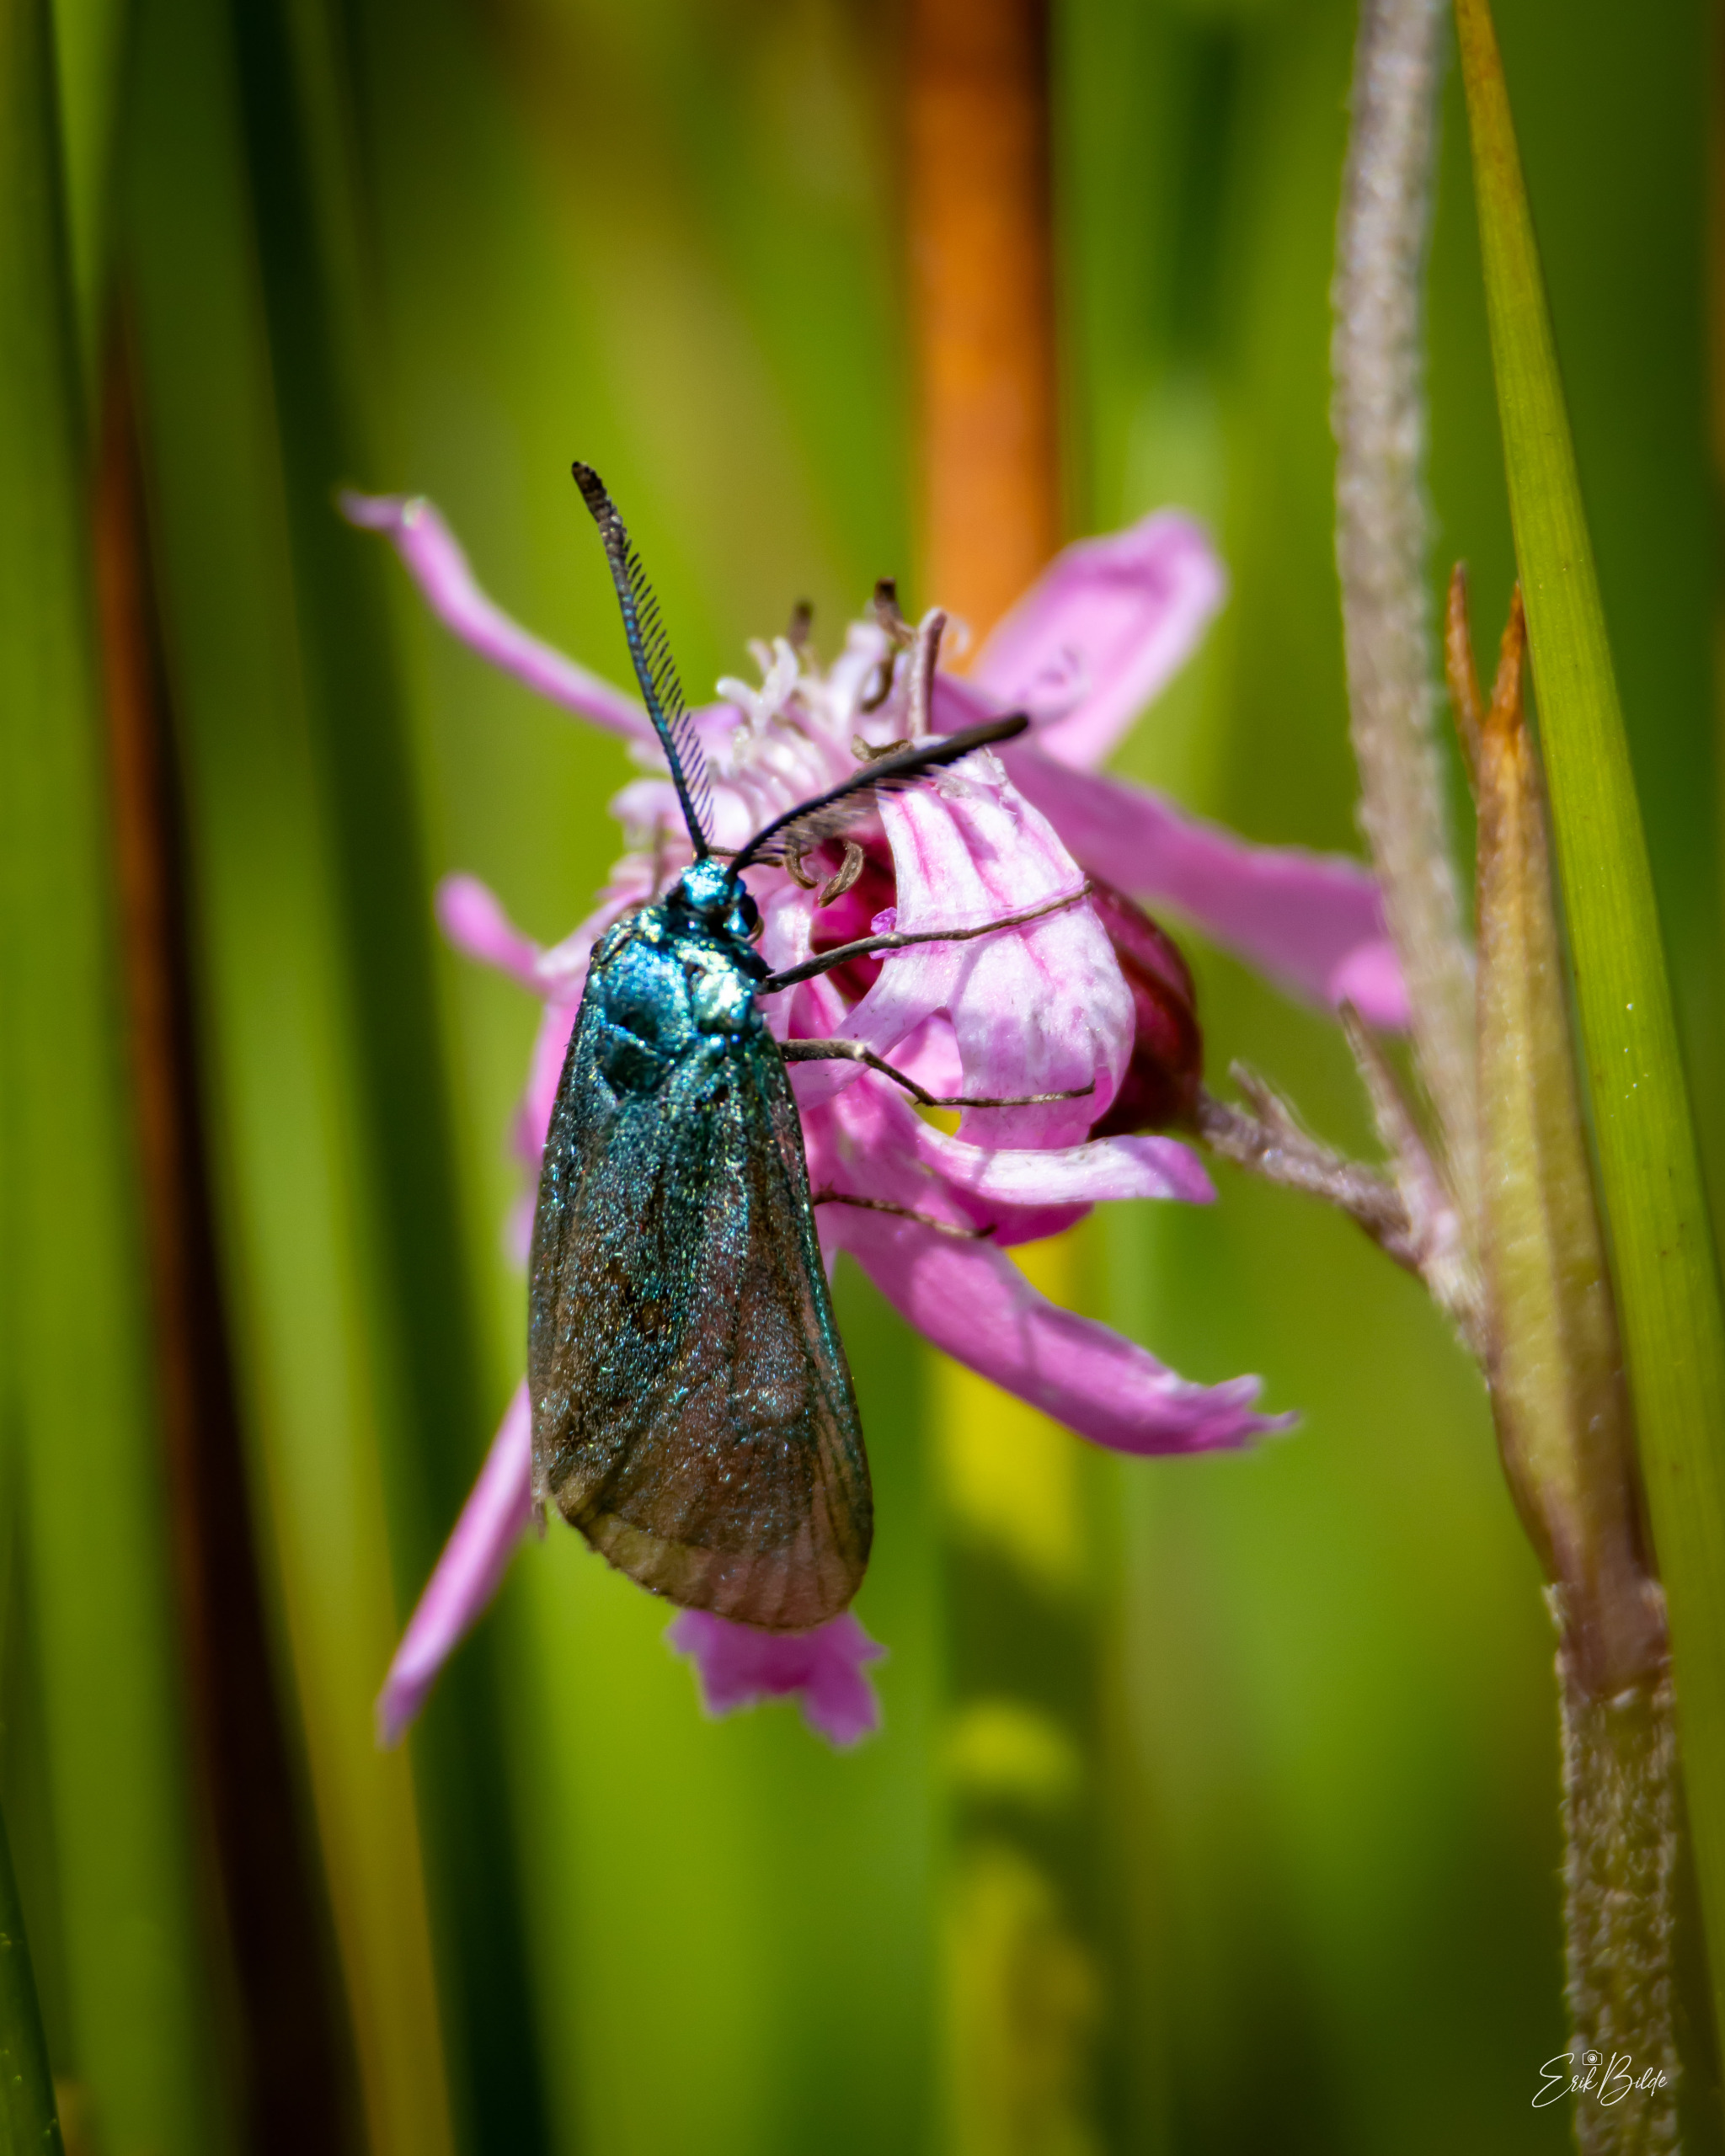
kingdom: Animalia
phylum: Arthropoda
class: Insecta
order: Lepidoptera
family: Zygaenidae
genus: Adscita
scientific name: Adscita statices
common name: Metalvinge
